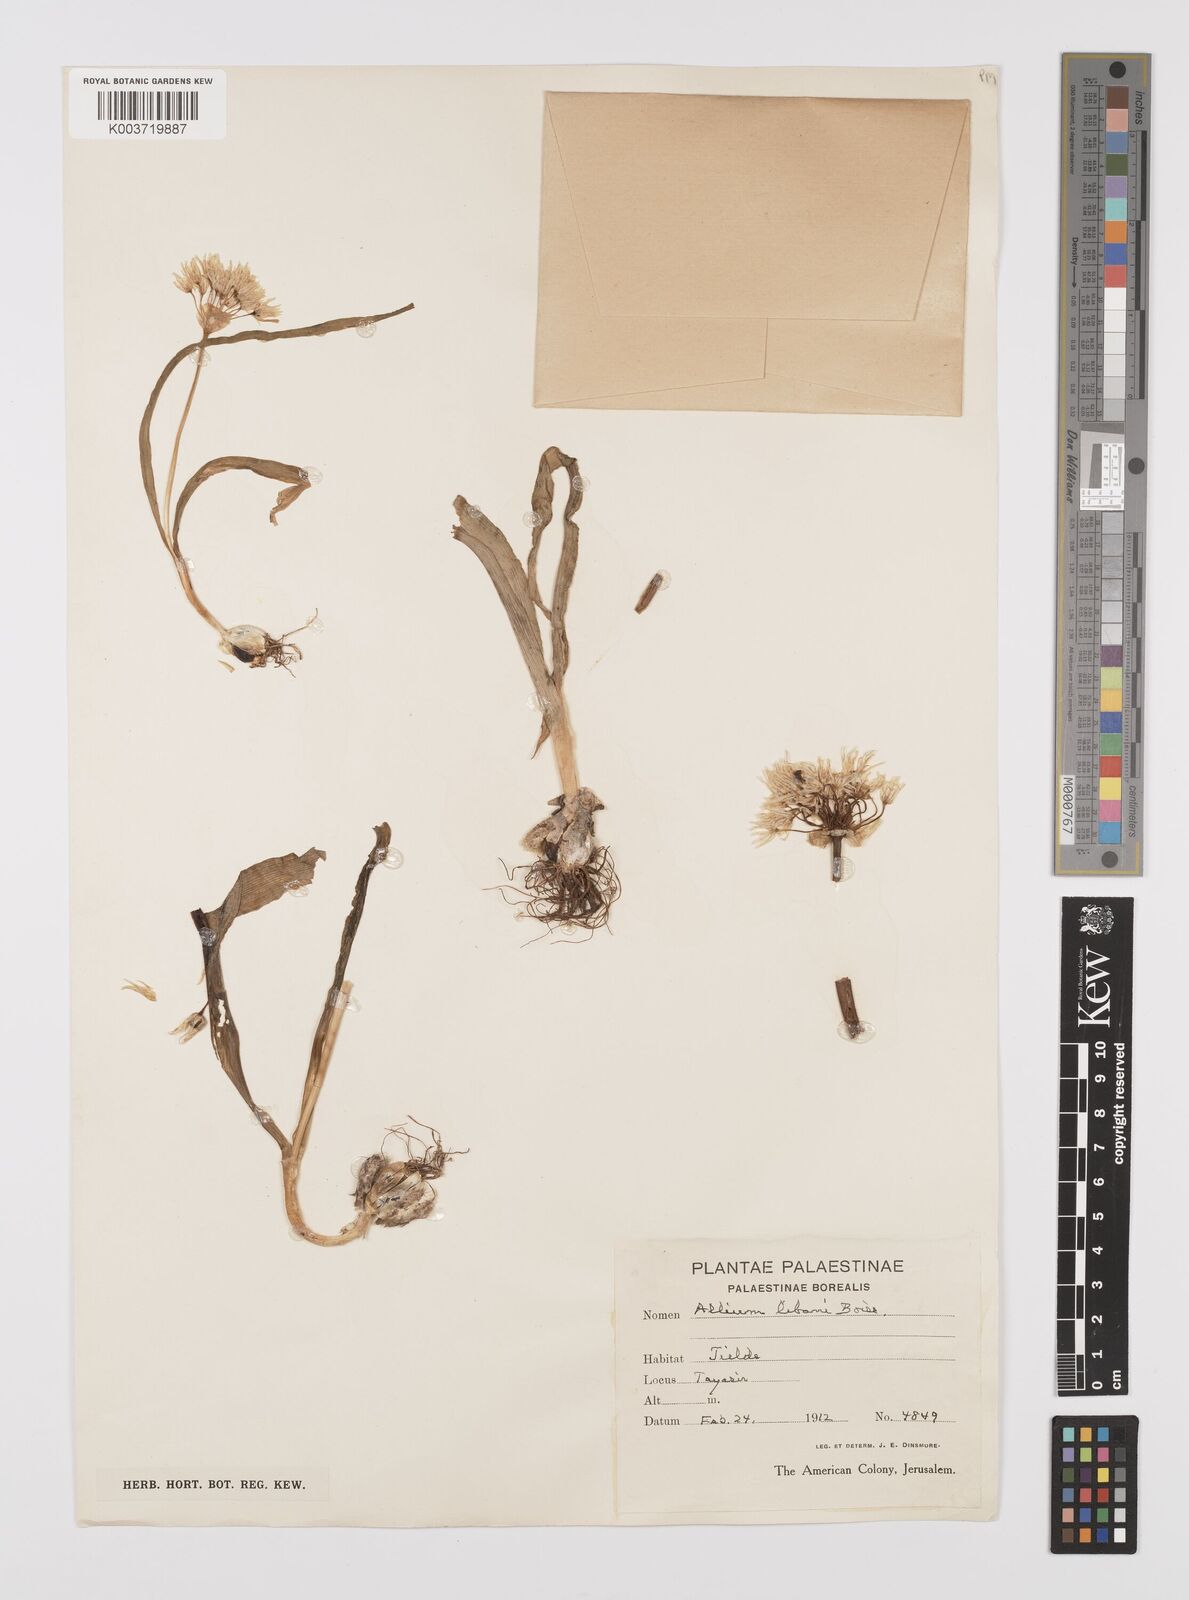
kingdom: Plantae
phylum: Tracheophyta
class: Liliopsida
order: Asparagales
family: Amaryllidaceae
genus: Allium
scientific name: Allium orientale
